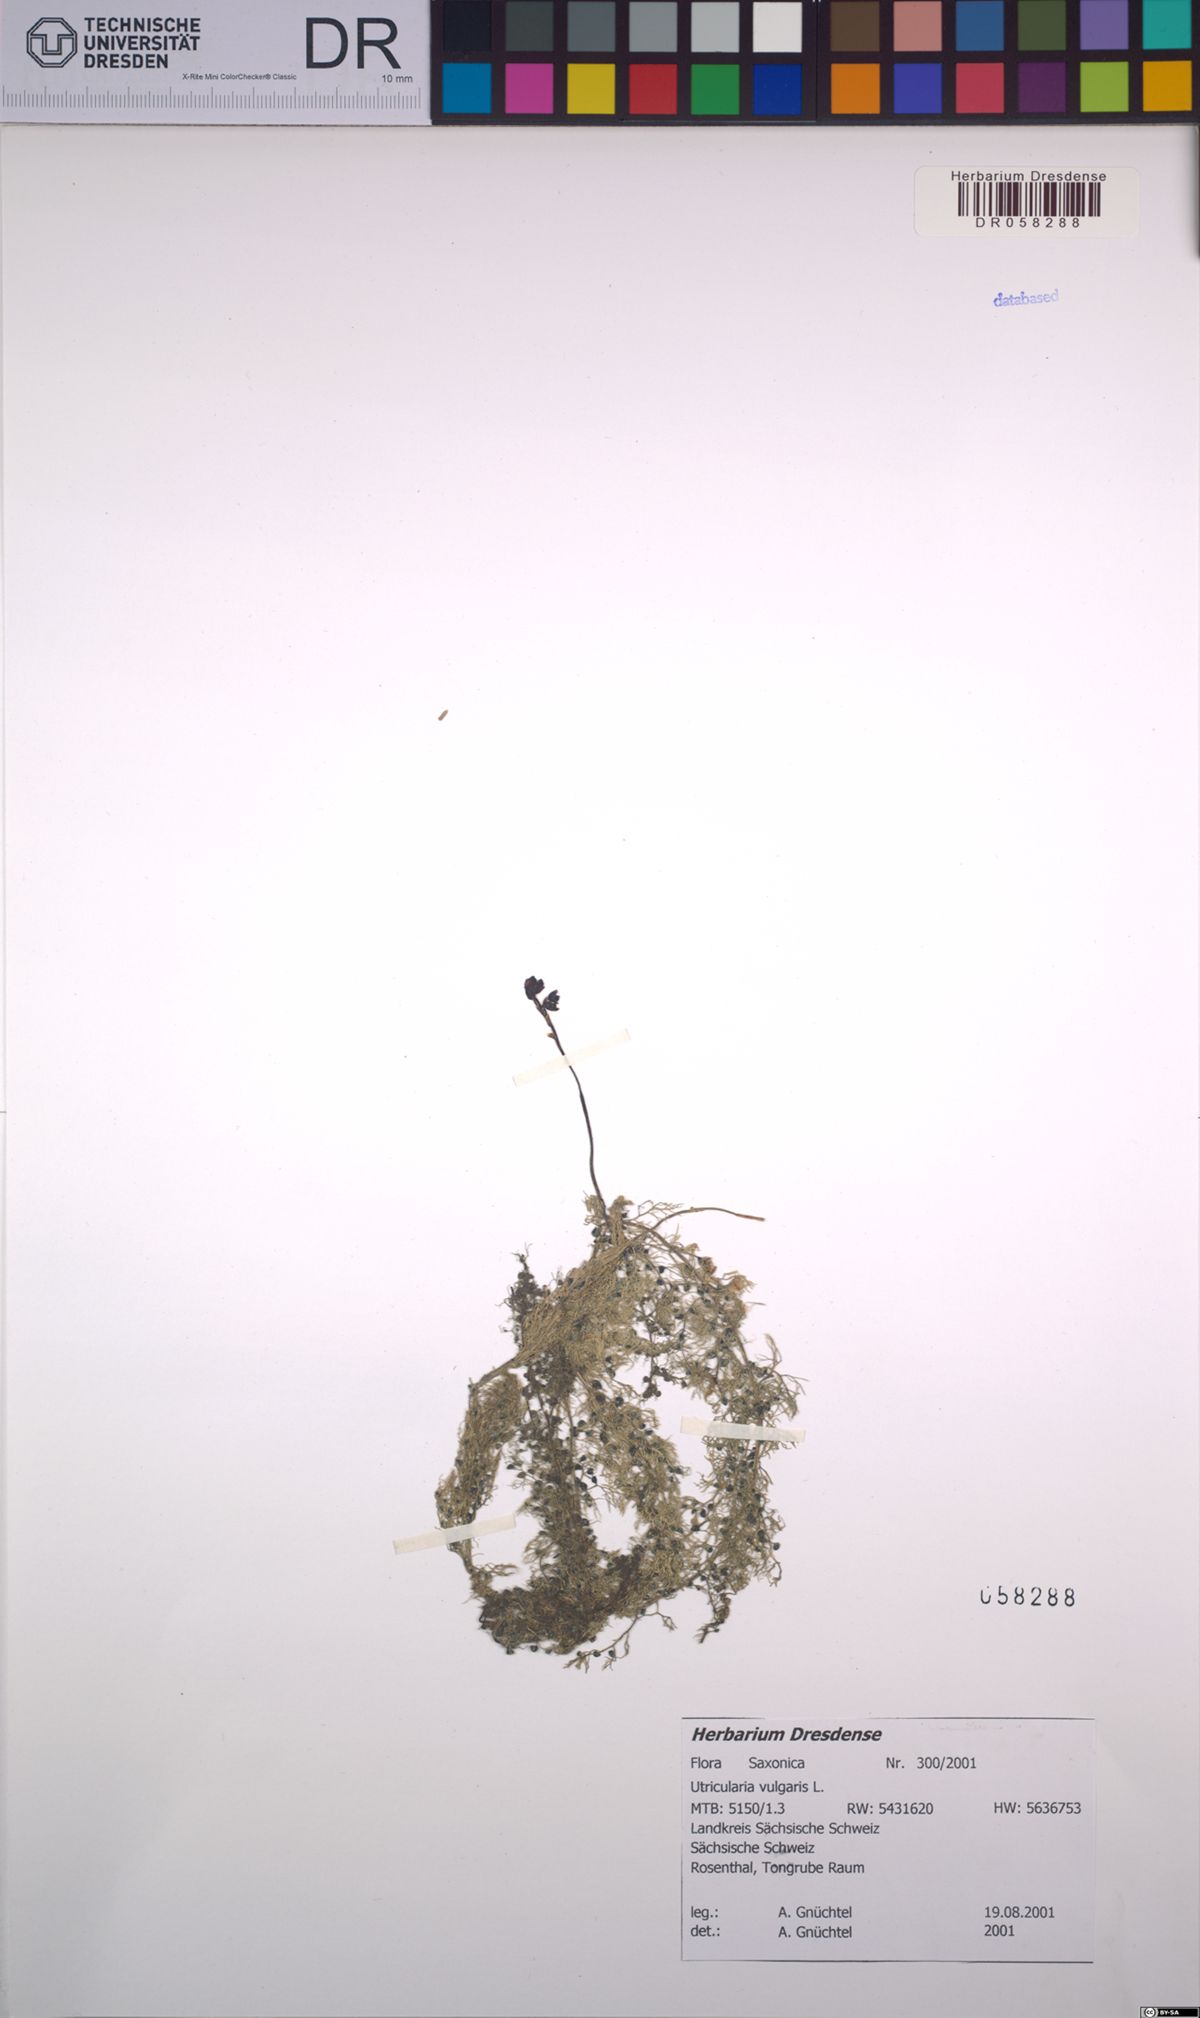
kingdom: Plantae
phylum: Tracheophyta
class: Magnoliopsida
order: Lamiales
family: Lentibulariaceae
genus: Utricularia
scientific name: Utricularia vulgaris
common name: Greater bladderwort
